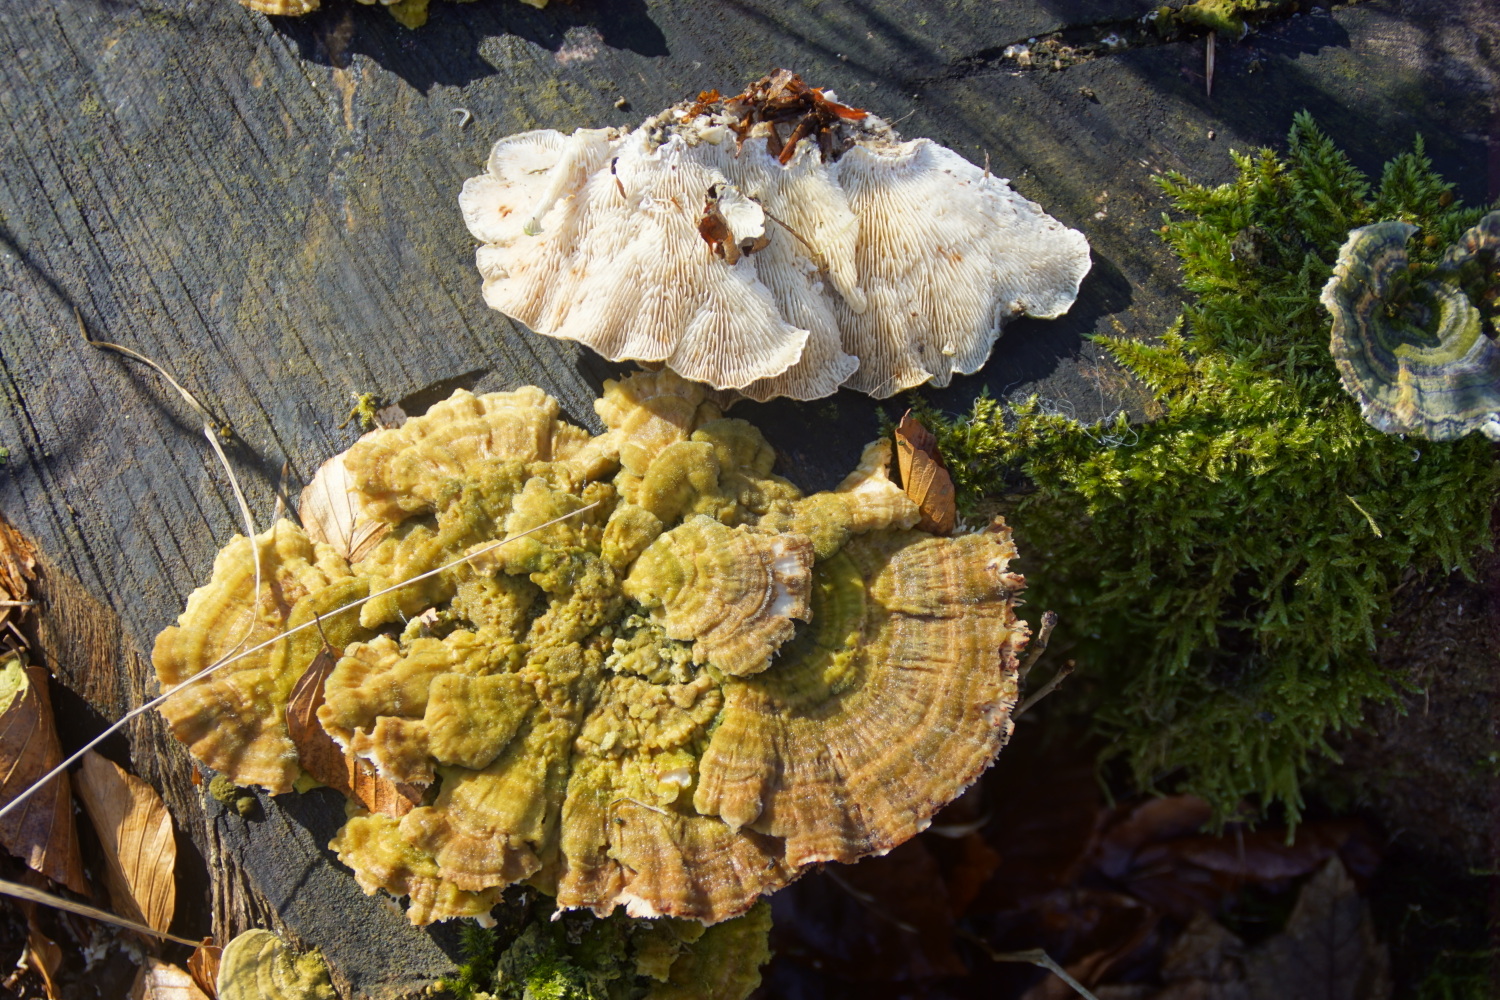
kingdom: Fungi
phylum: Basidiomycota
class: Agaricomycetes
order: Polyporales
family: Polyporaceae
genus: Lenzites
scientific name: Lenzites betulinus
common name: birke-læderporesvamp
